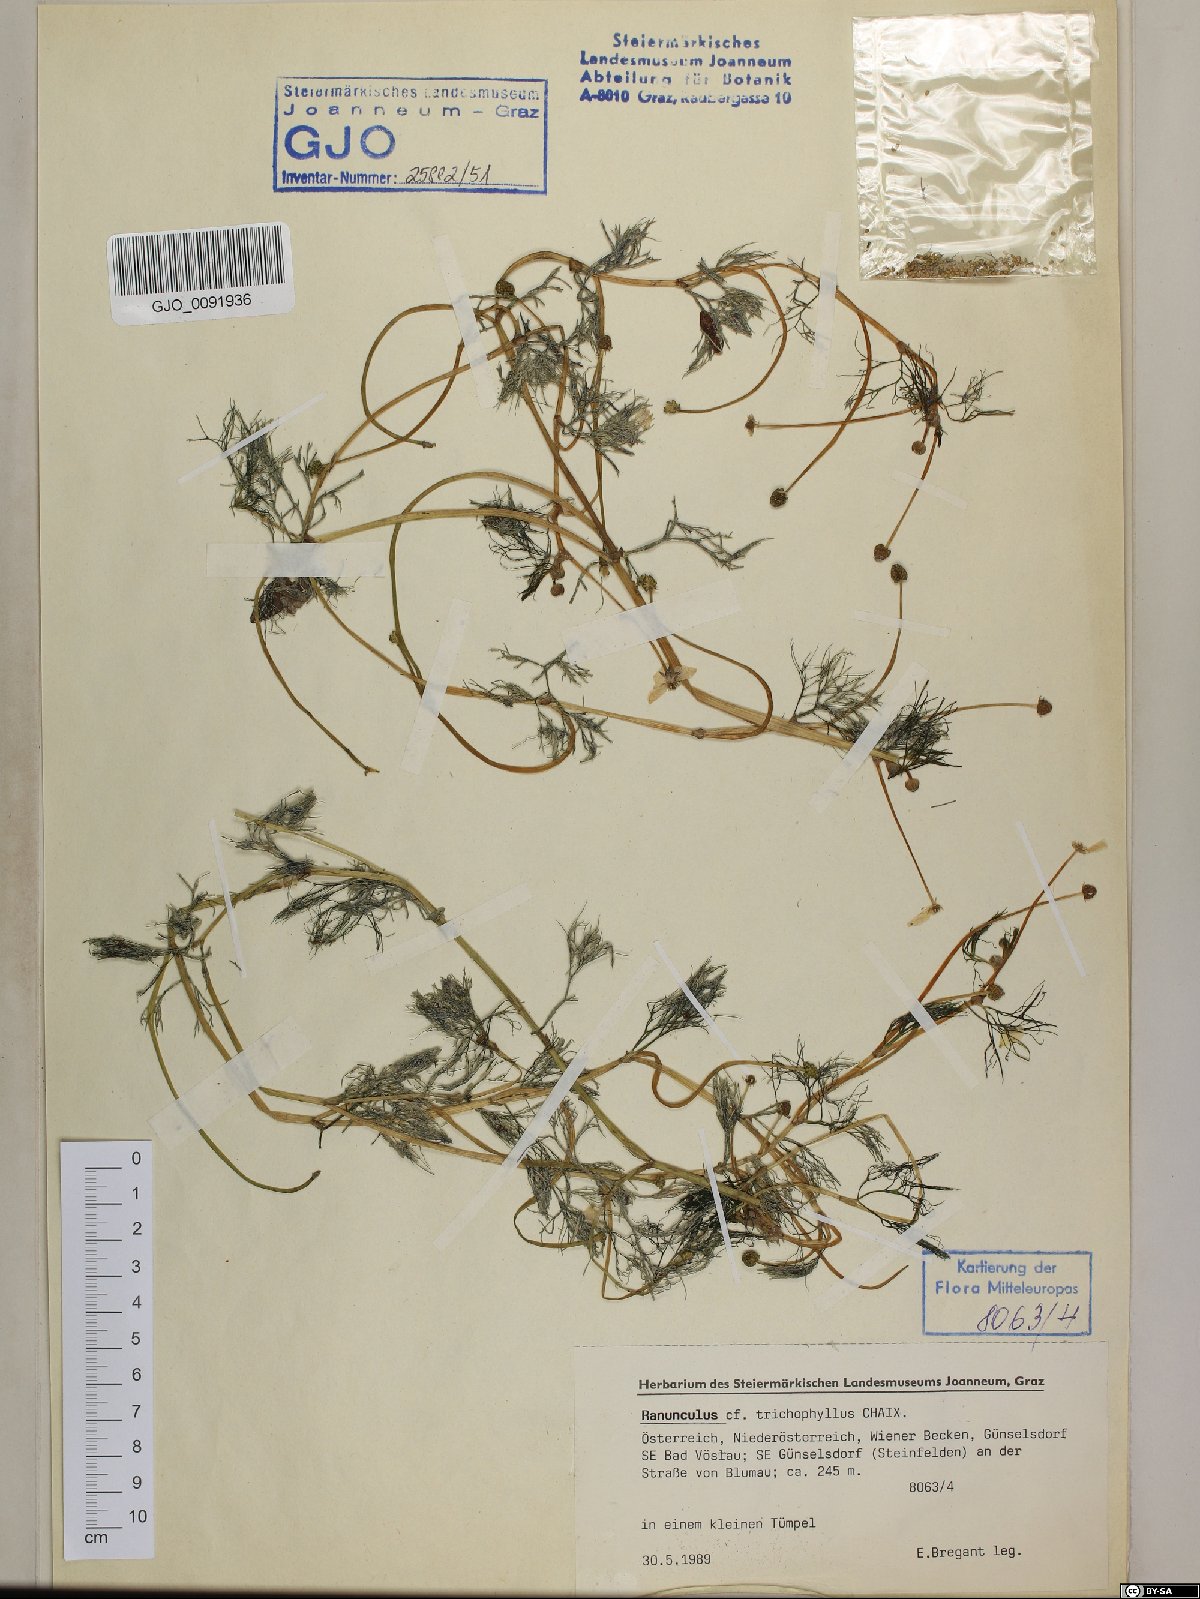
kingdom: Plantae
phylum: Tracheophyta
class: Magnoliopsida
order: Ranunculales
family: Ranunculaceae
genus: Ranunculus
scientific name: Ranunculus trichophyllus
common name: Thread-leaved water-crowfoot
